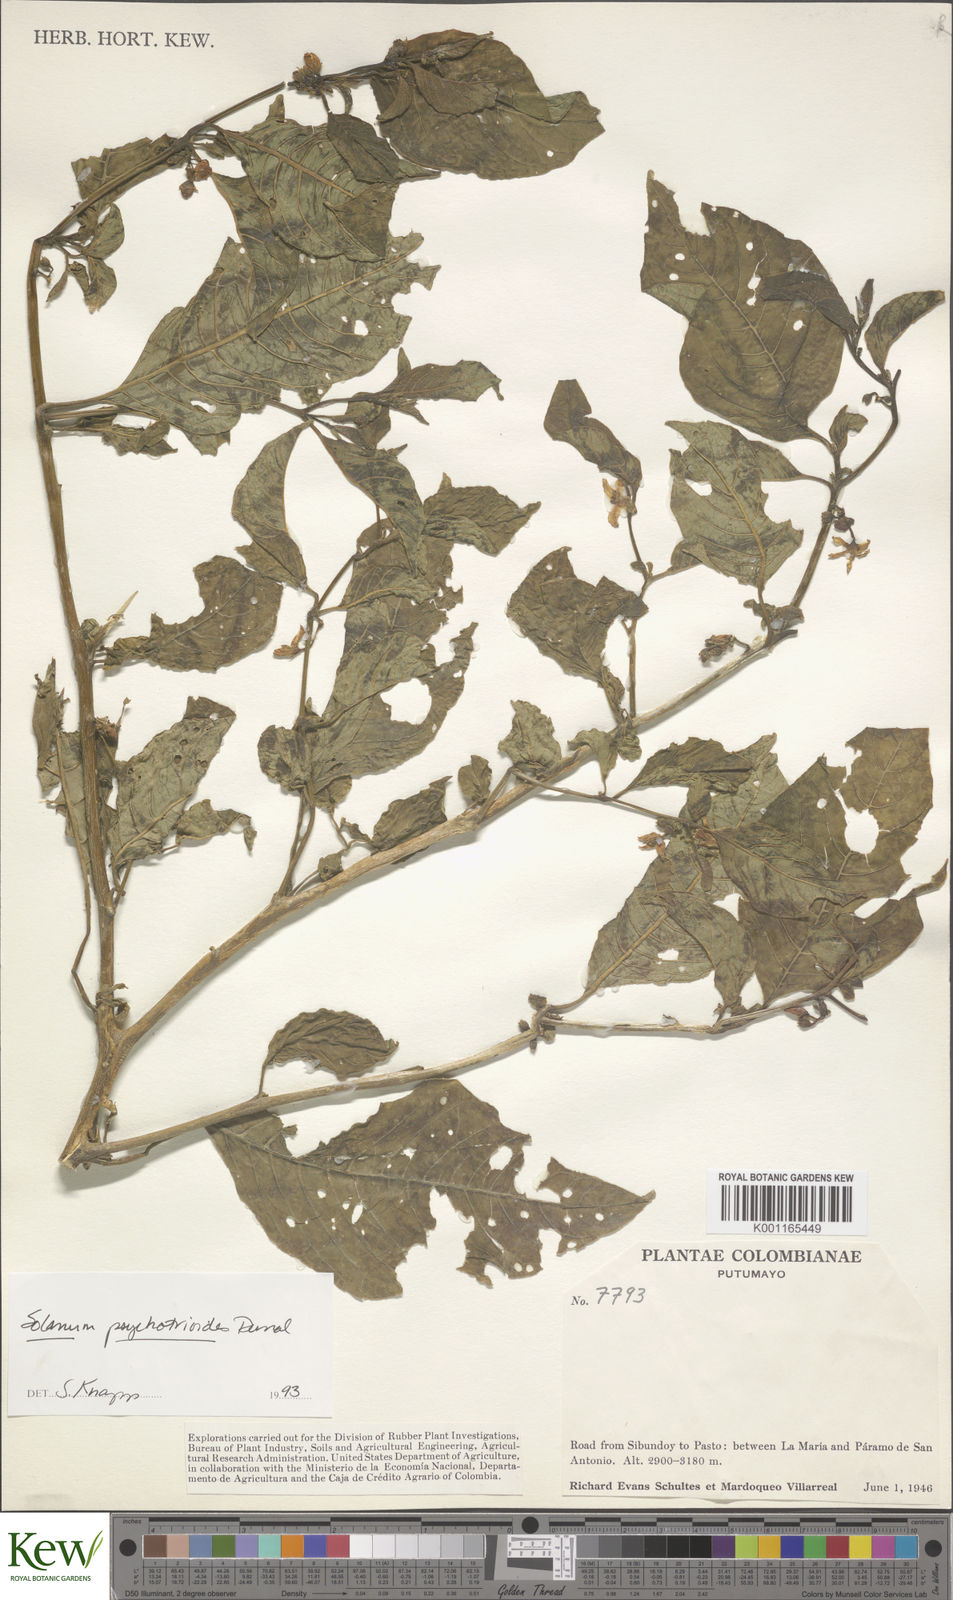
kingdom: Plantae
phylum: Tracheophyta
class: Magnoliopsida
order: Solanales
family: Solanaceae
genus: Solanum
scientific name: Solanum psychotrioides
